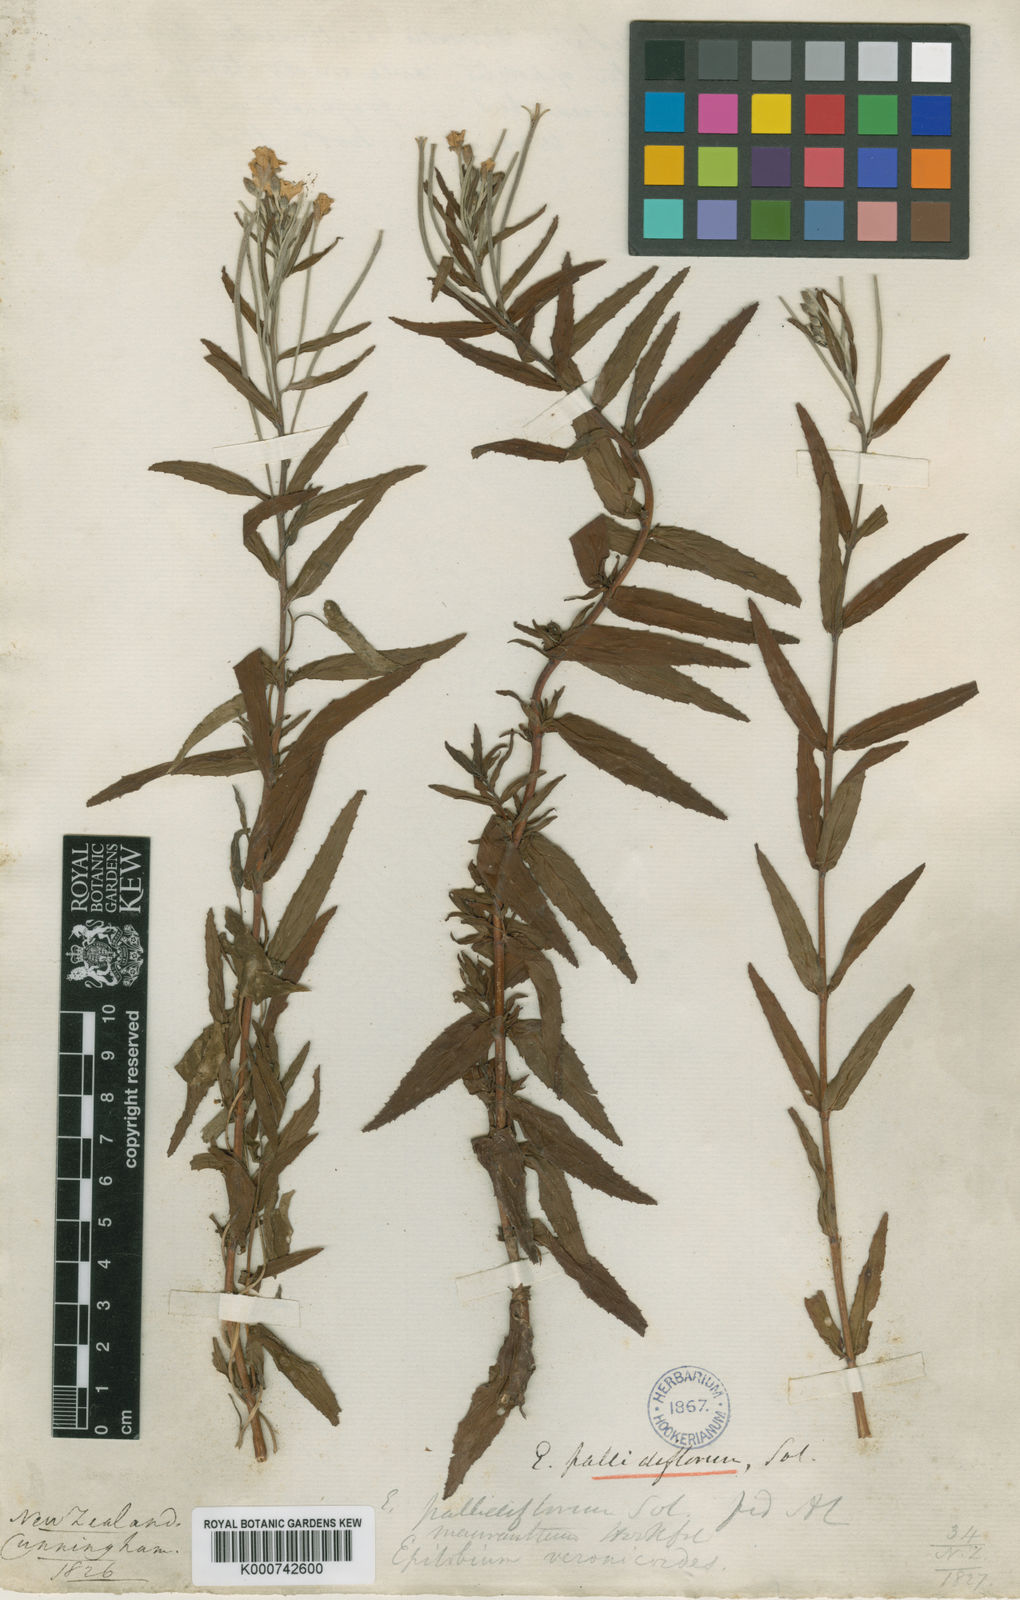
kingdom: Plantae
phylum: Tracheophyta
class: Magnoliopsida
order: Myrtales
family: Onagraceae
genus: Epilobium
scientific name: Epilobium pallidiflorum
